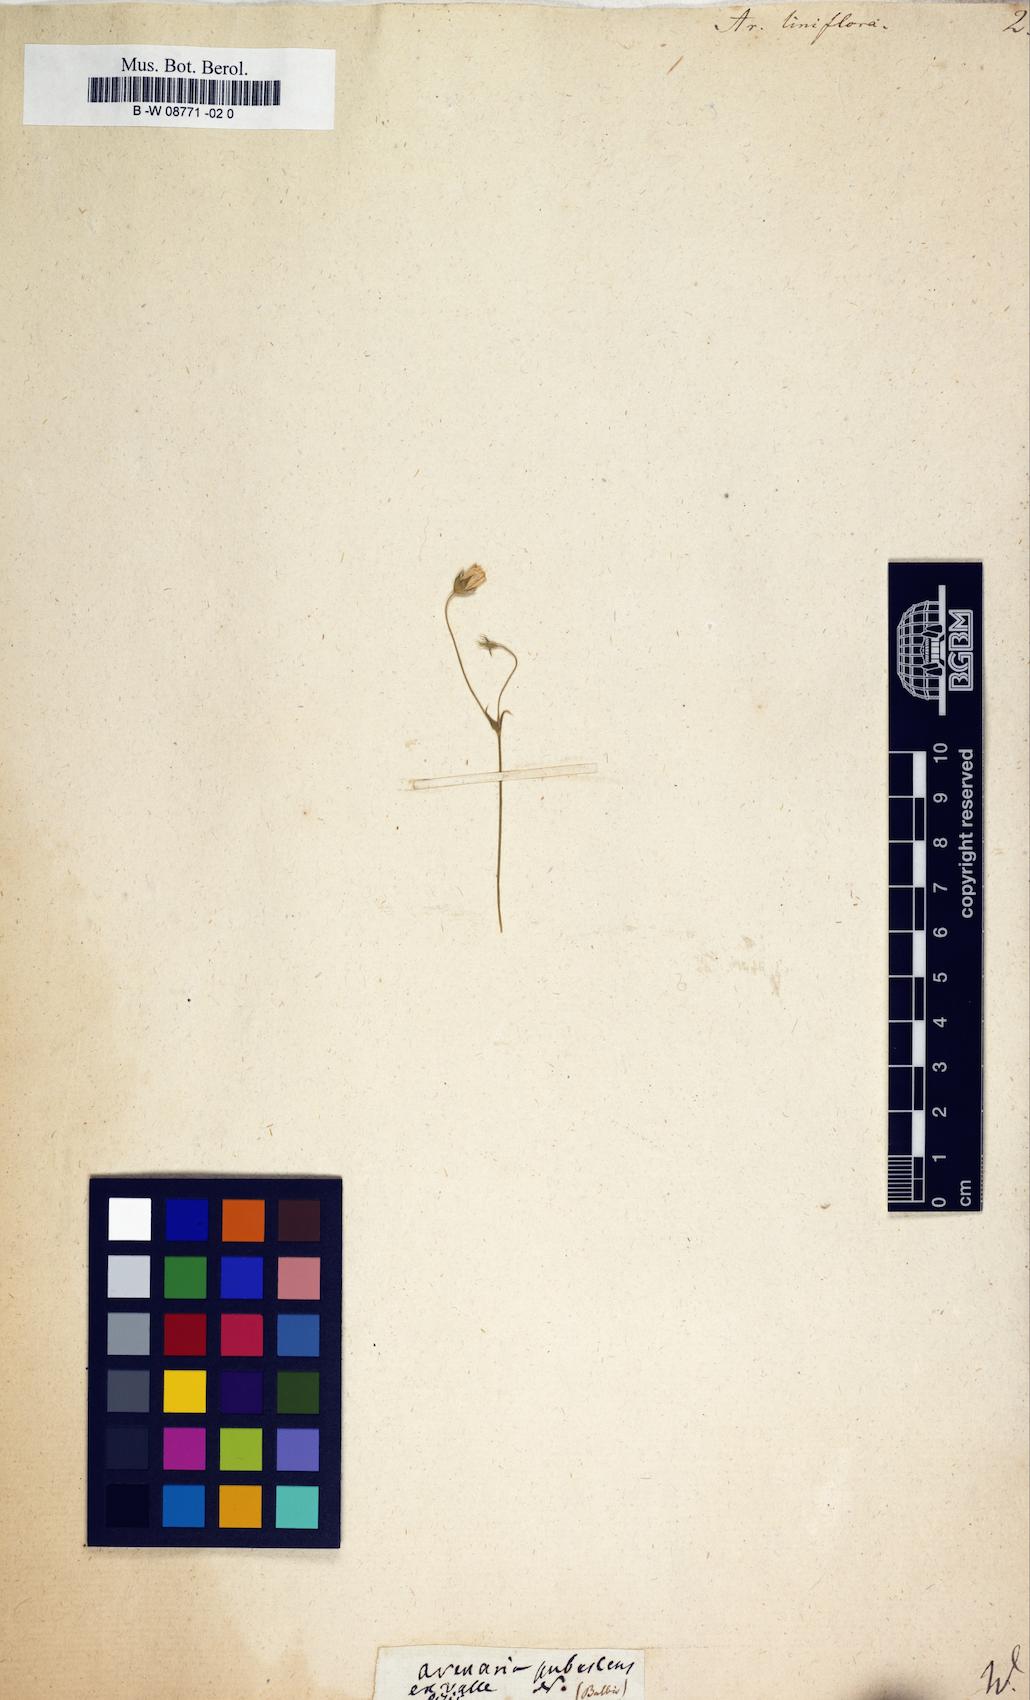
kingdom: Plantae
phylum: Tracheophyta
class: Magnoliopsida
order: Caryophyllales
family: Caryophyllaceae
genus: Arenaria
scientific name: Arenaria grandiflora
